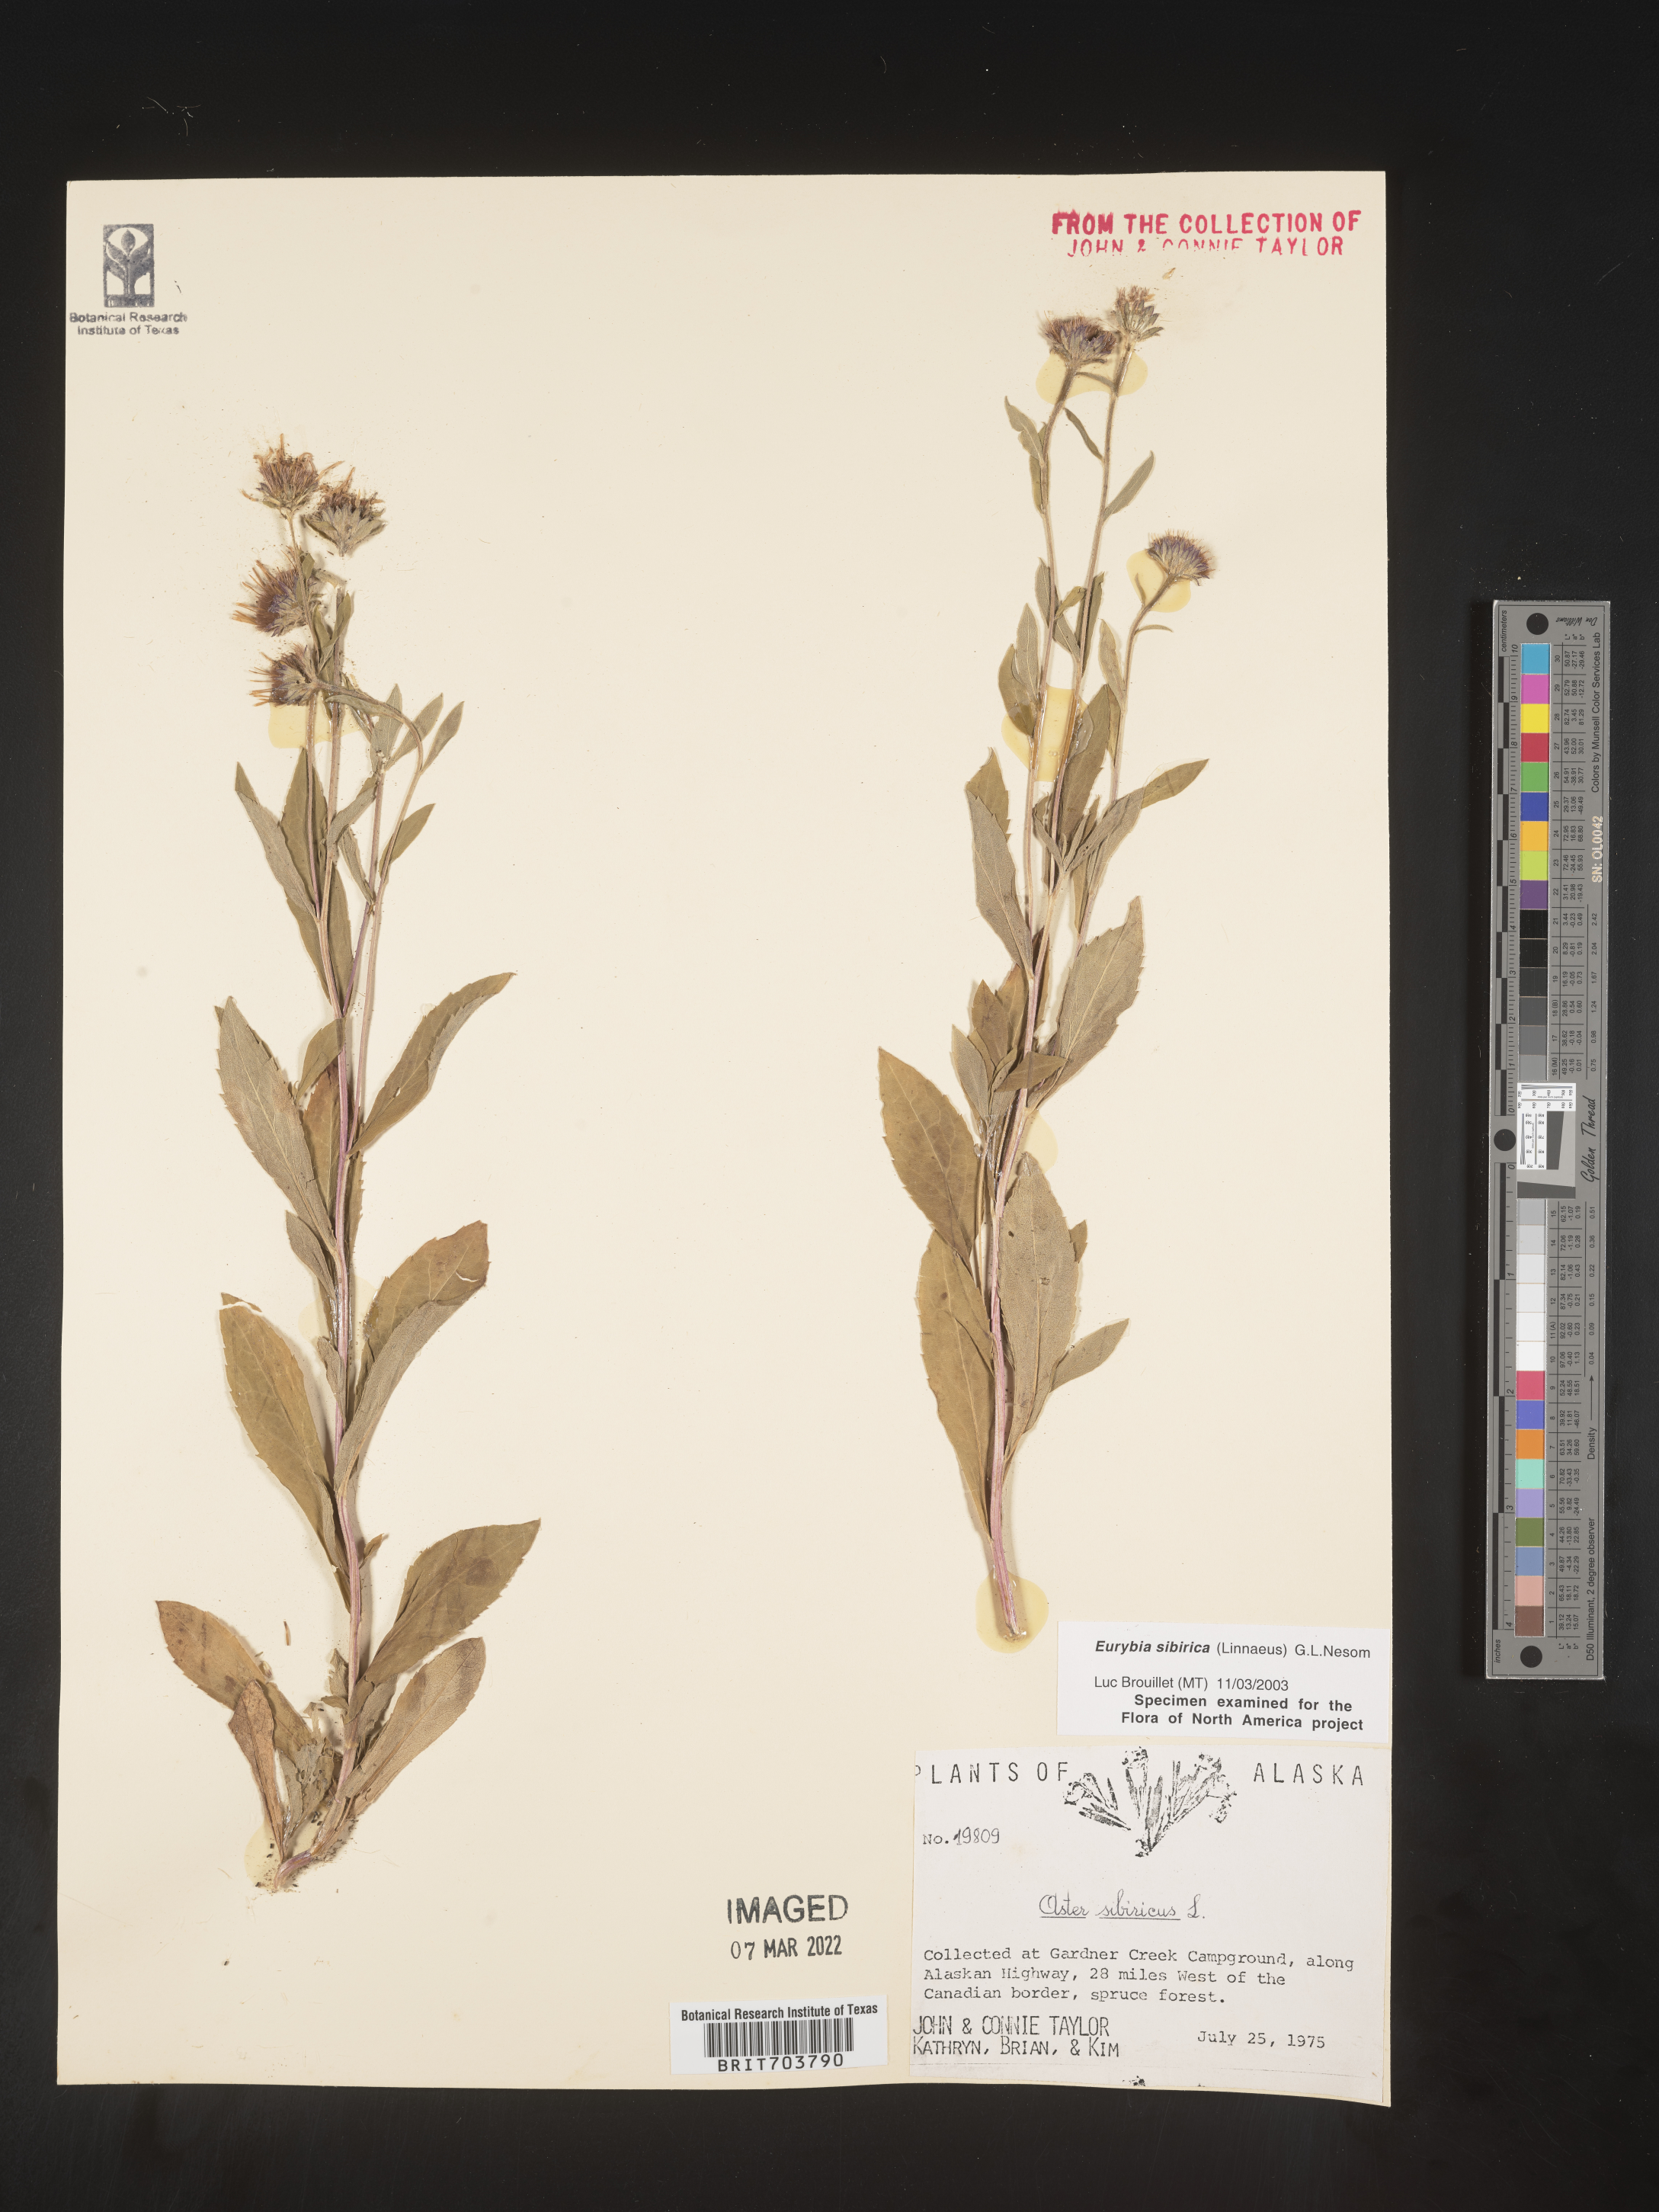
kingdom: Plantae
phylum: Tracheophyta
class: Magnoliopsida
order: Asterales
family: Asteraceae
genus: Eurybia
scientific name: Eurybia sibirica
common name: Arctic aster
